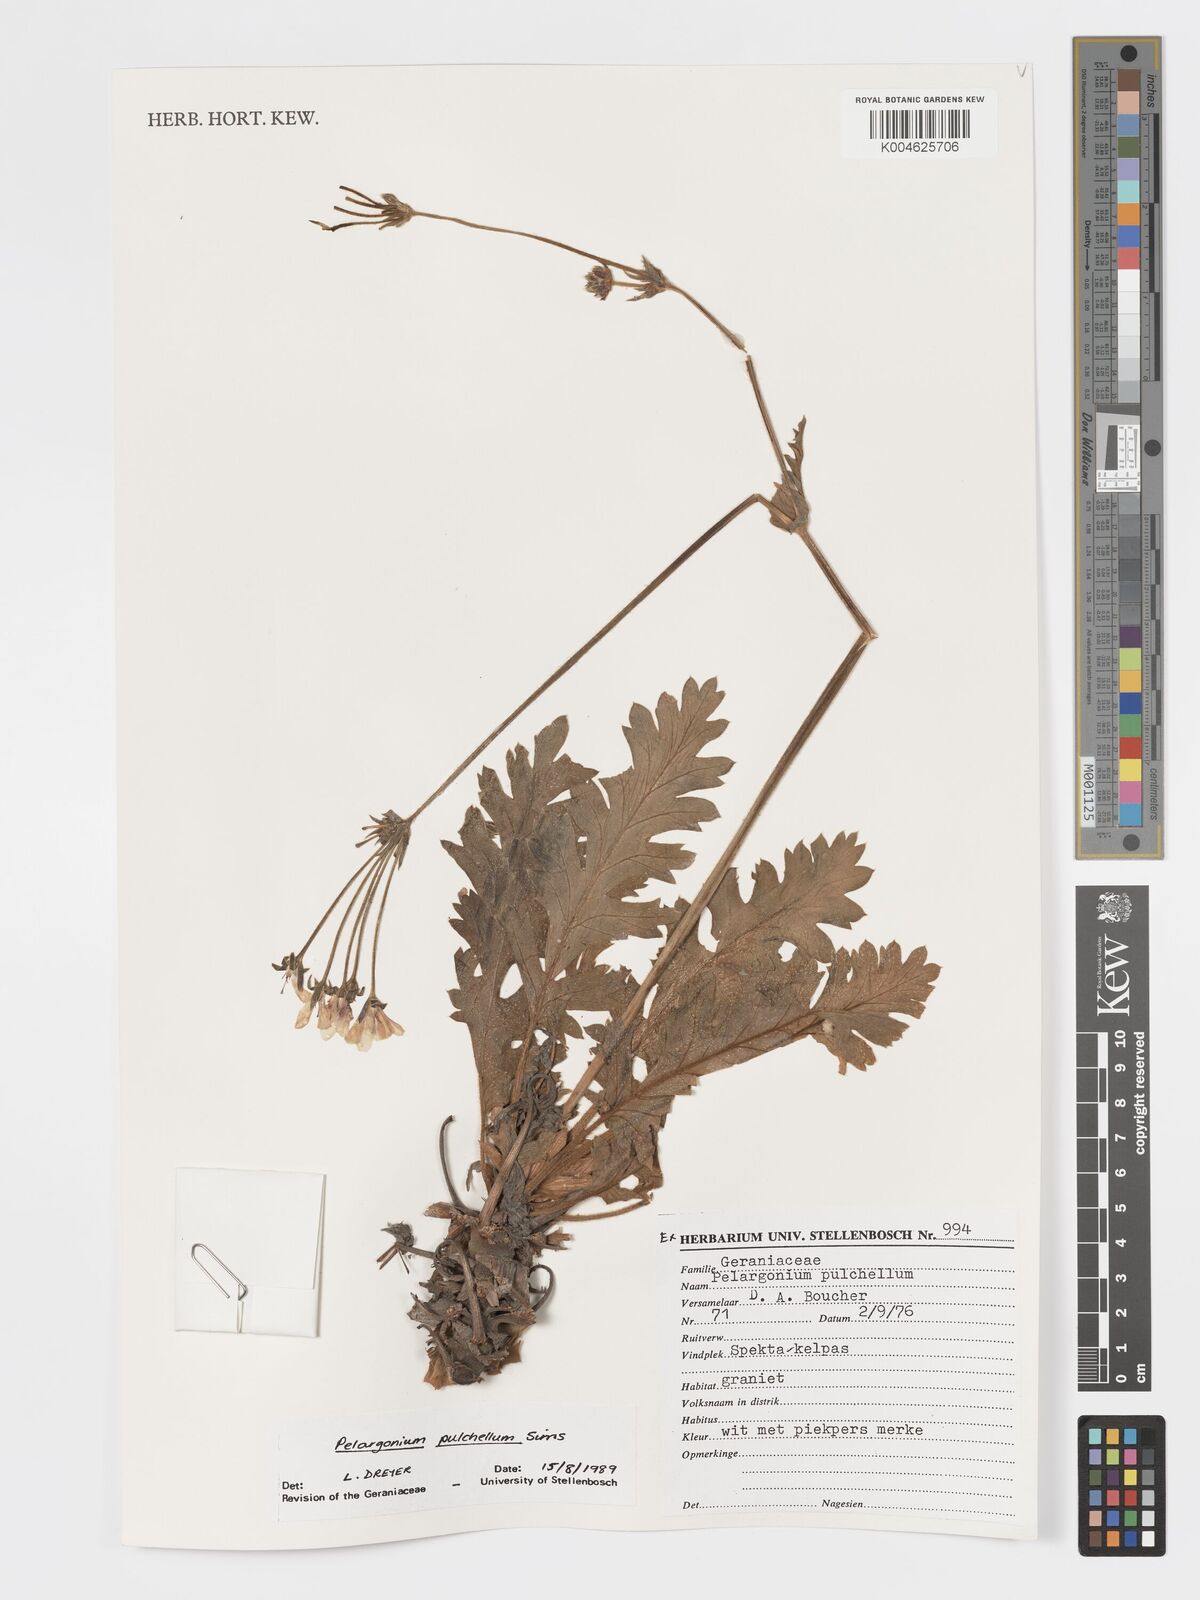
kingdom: Plantae
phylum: Tracheophyta
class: Magnoliopsida
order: Geraniales
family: Geraniaceae
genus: Pelargonium
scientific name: Pelargonium
